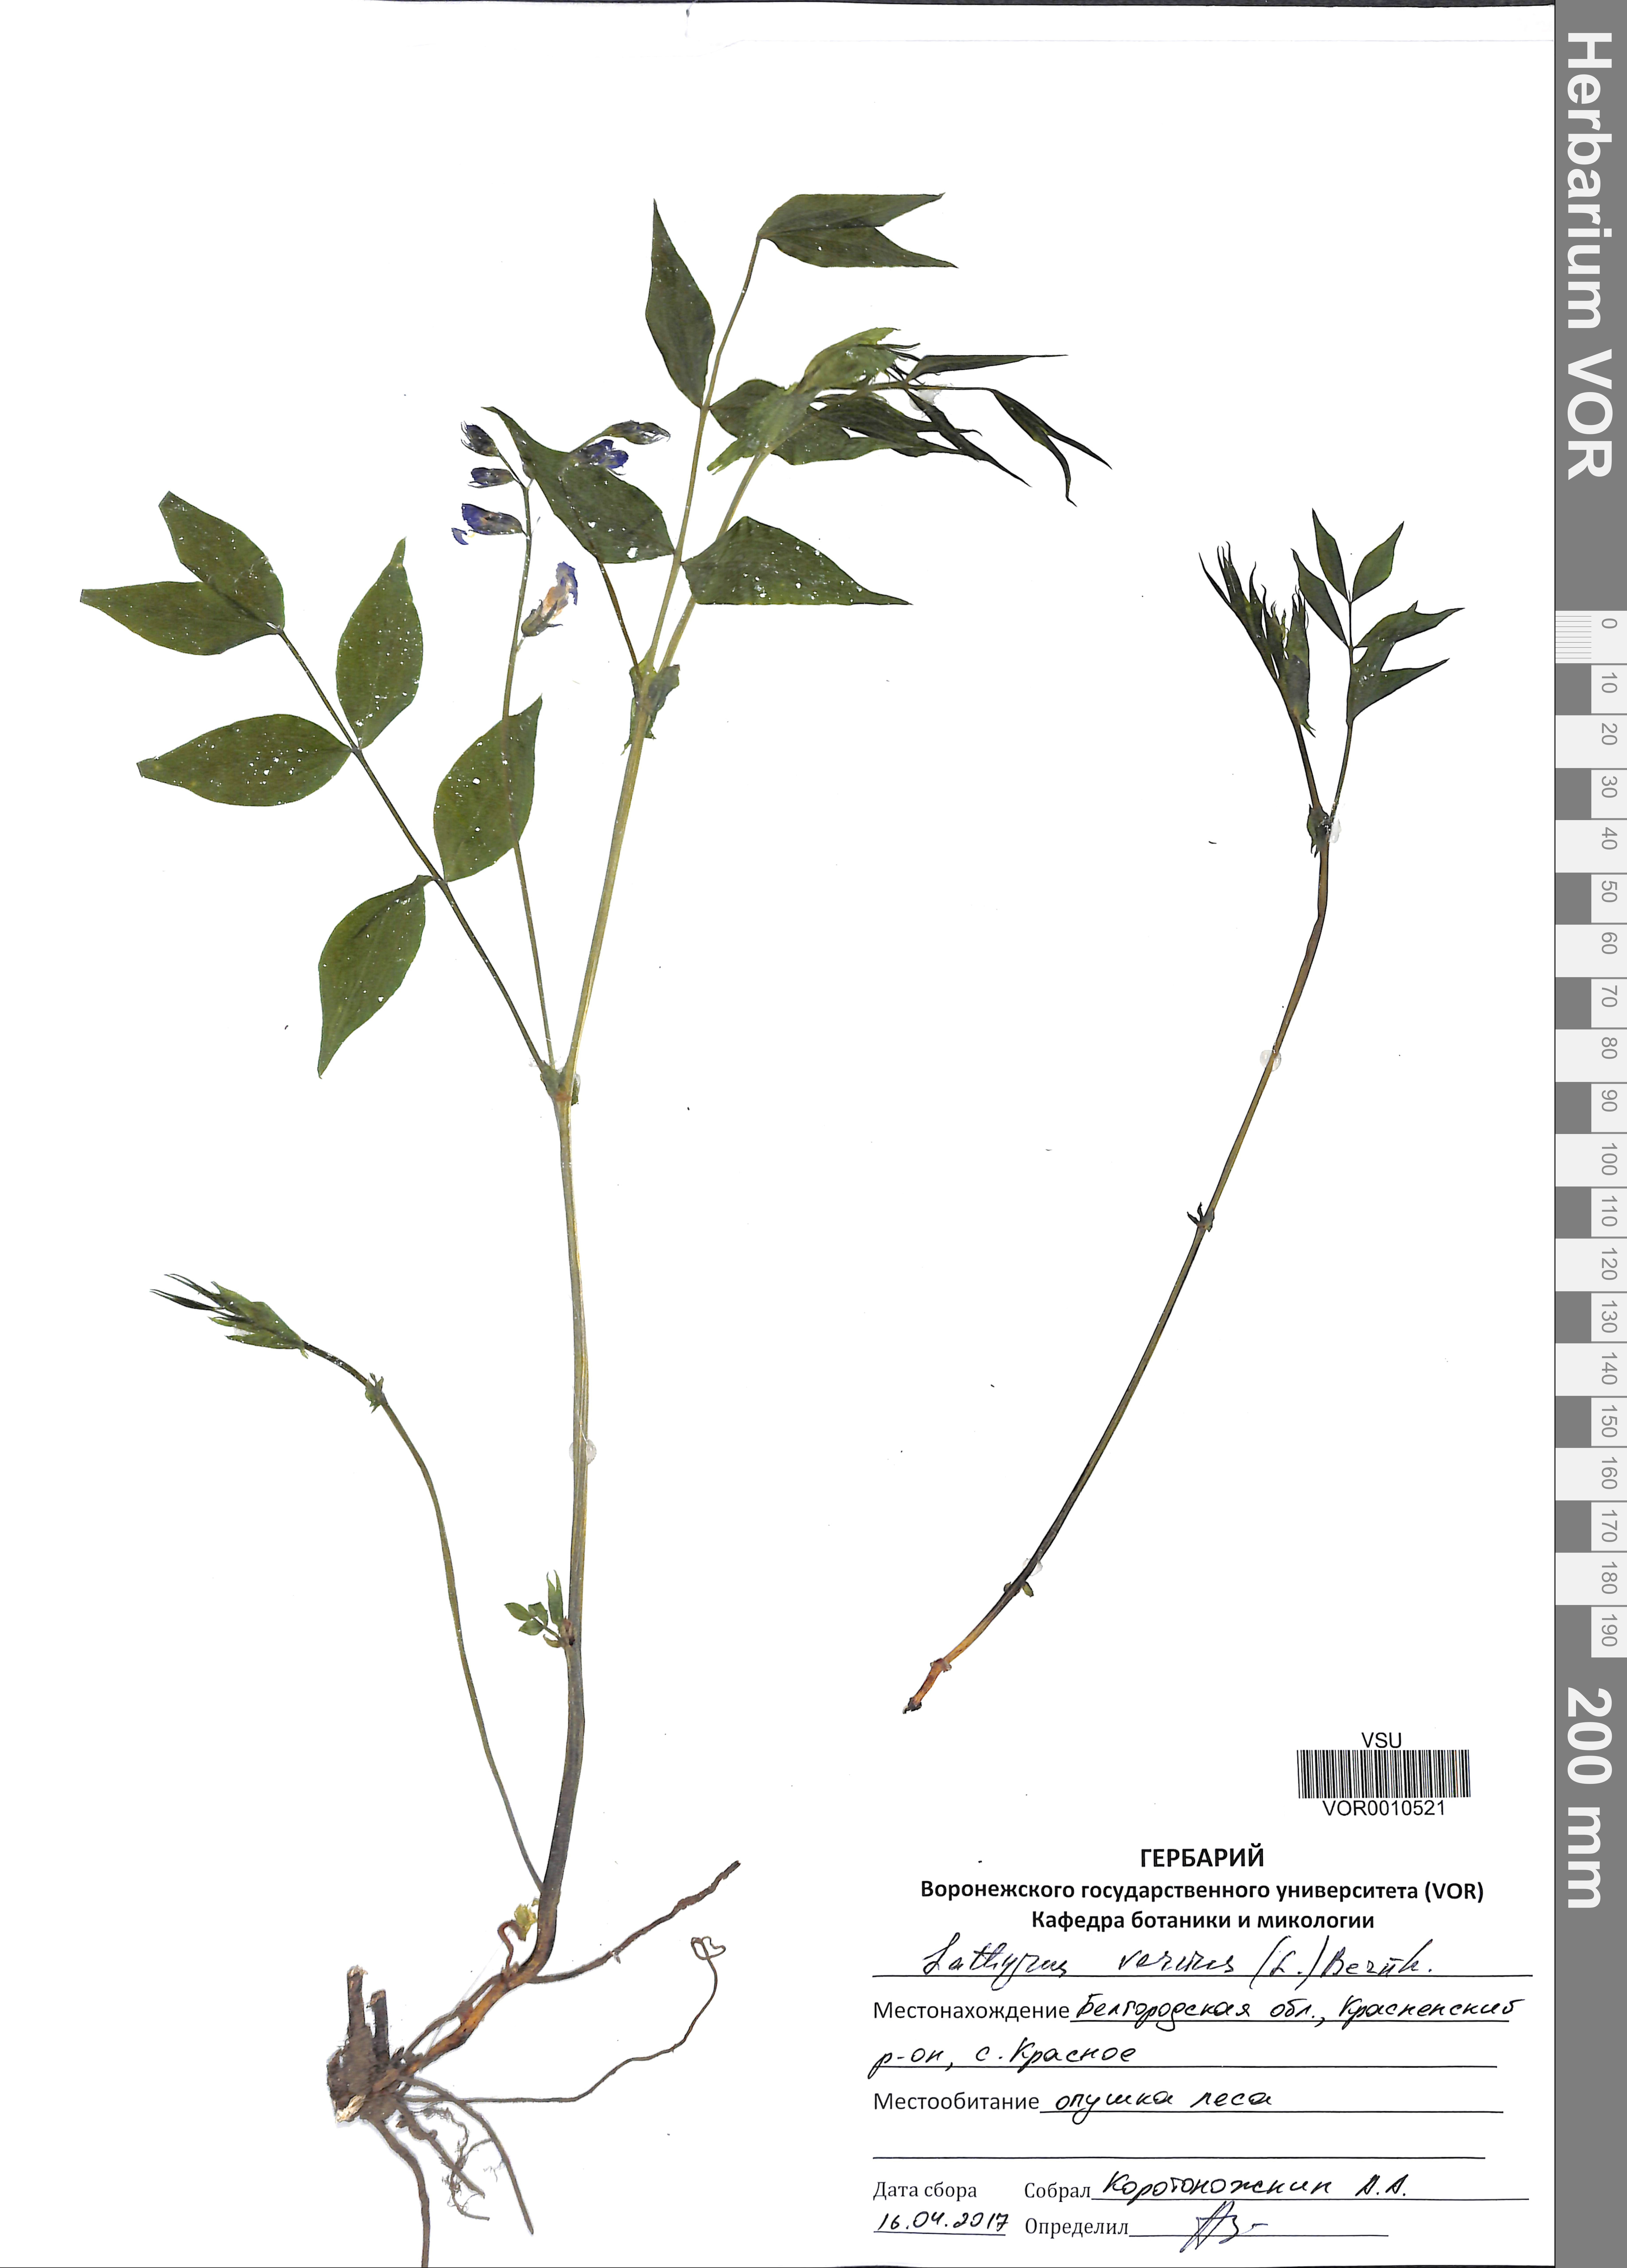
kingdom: Plantae
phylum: Tracheophyta
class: Magnoliopsida
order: Fabales
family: Fabaceae
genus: Lathyrus
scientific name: Lathyrus vernus
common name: Spring pea
